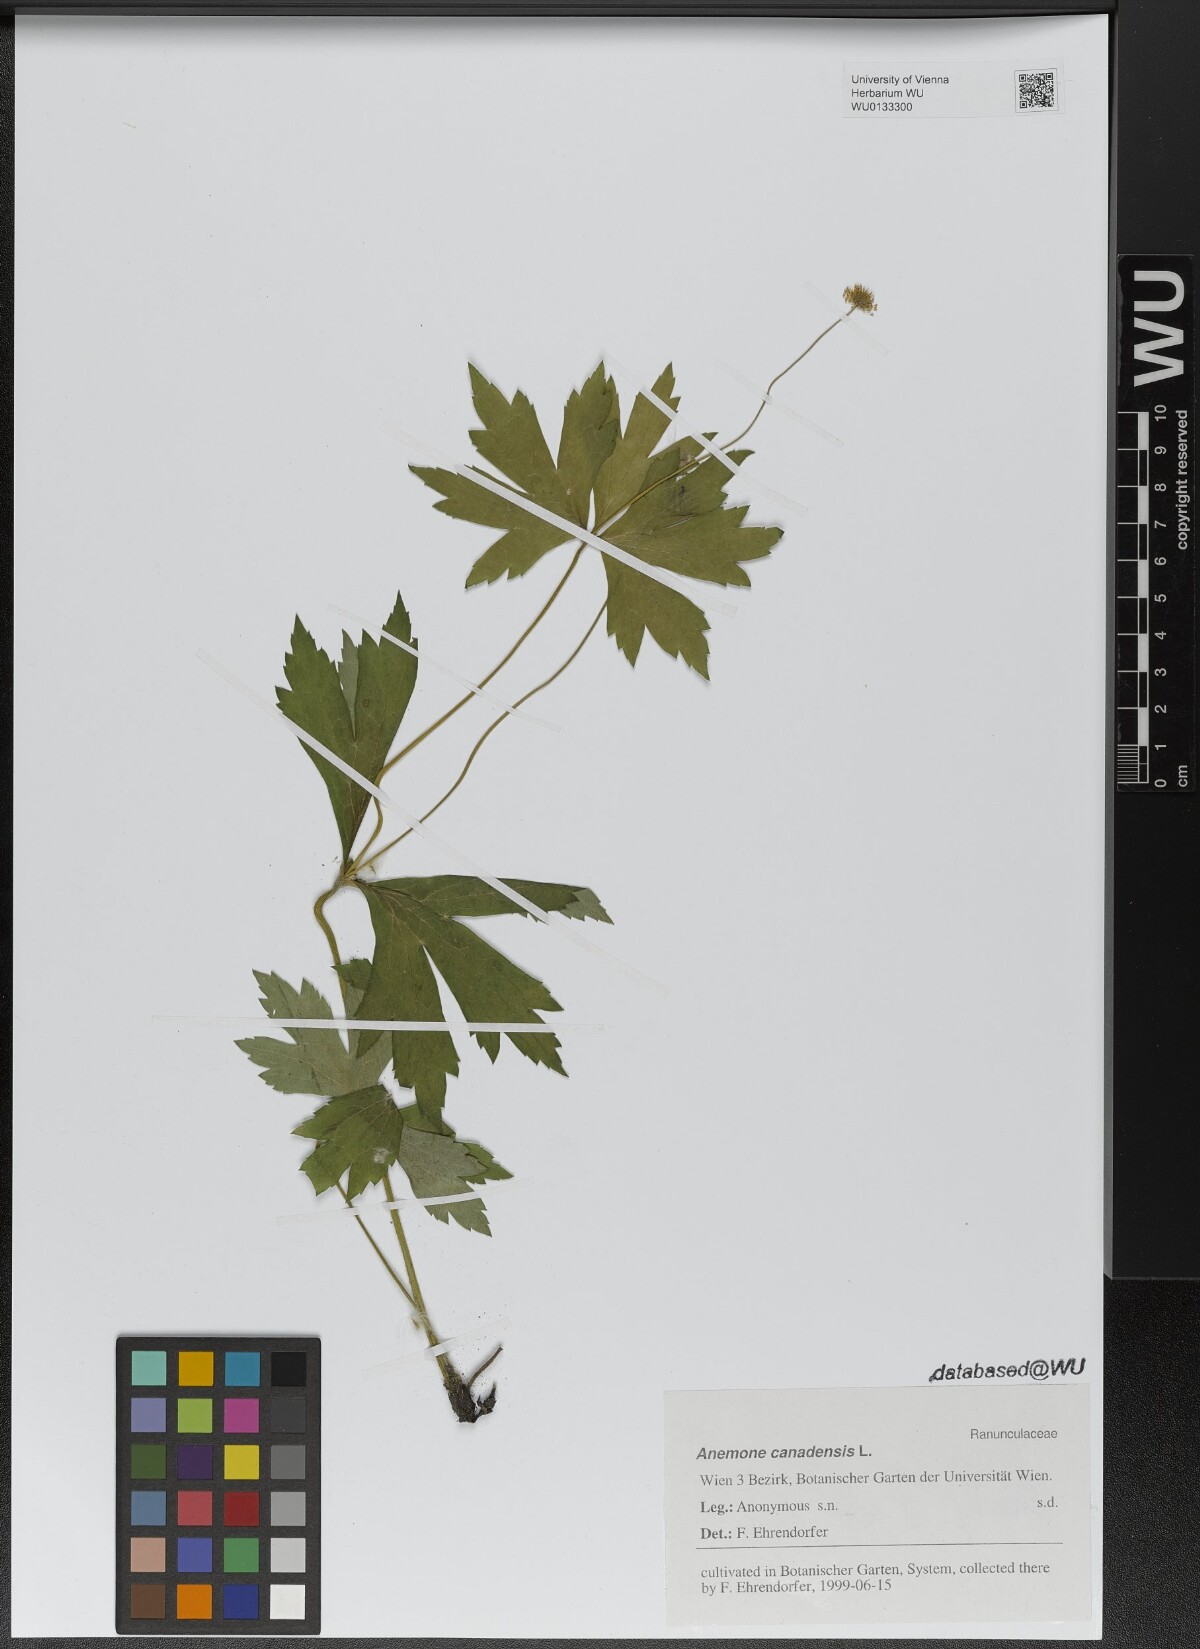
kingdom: Plantae
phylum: Tracheophyta
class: Magnoliopsida
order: Ranunculales
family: Ranunculaceae
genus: Anemonastrum
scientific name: Anemonastrum canadense
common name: Canada anemone
